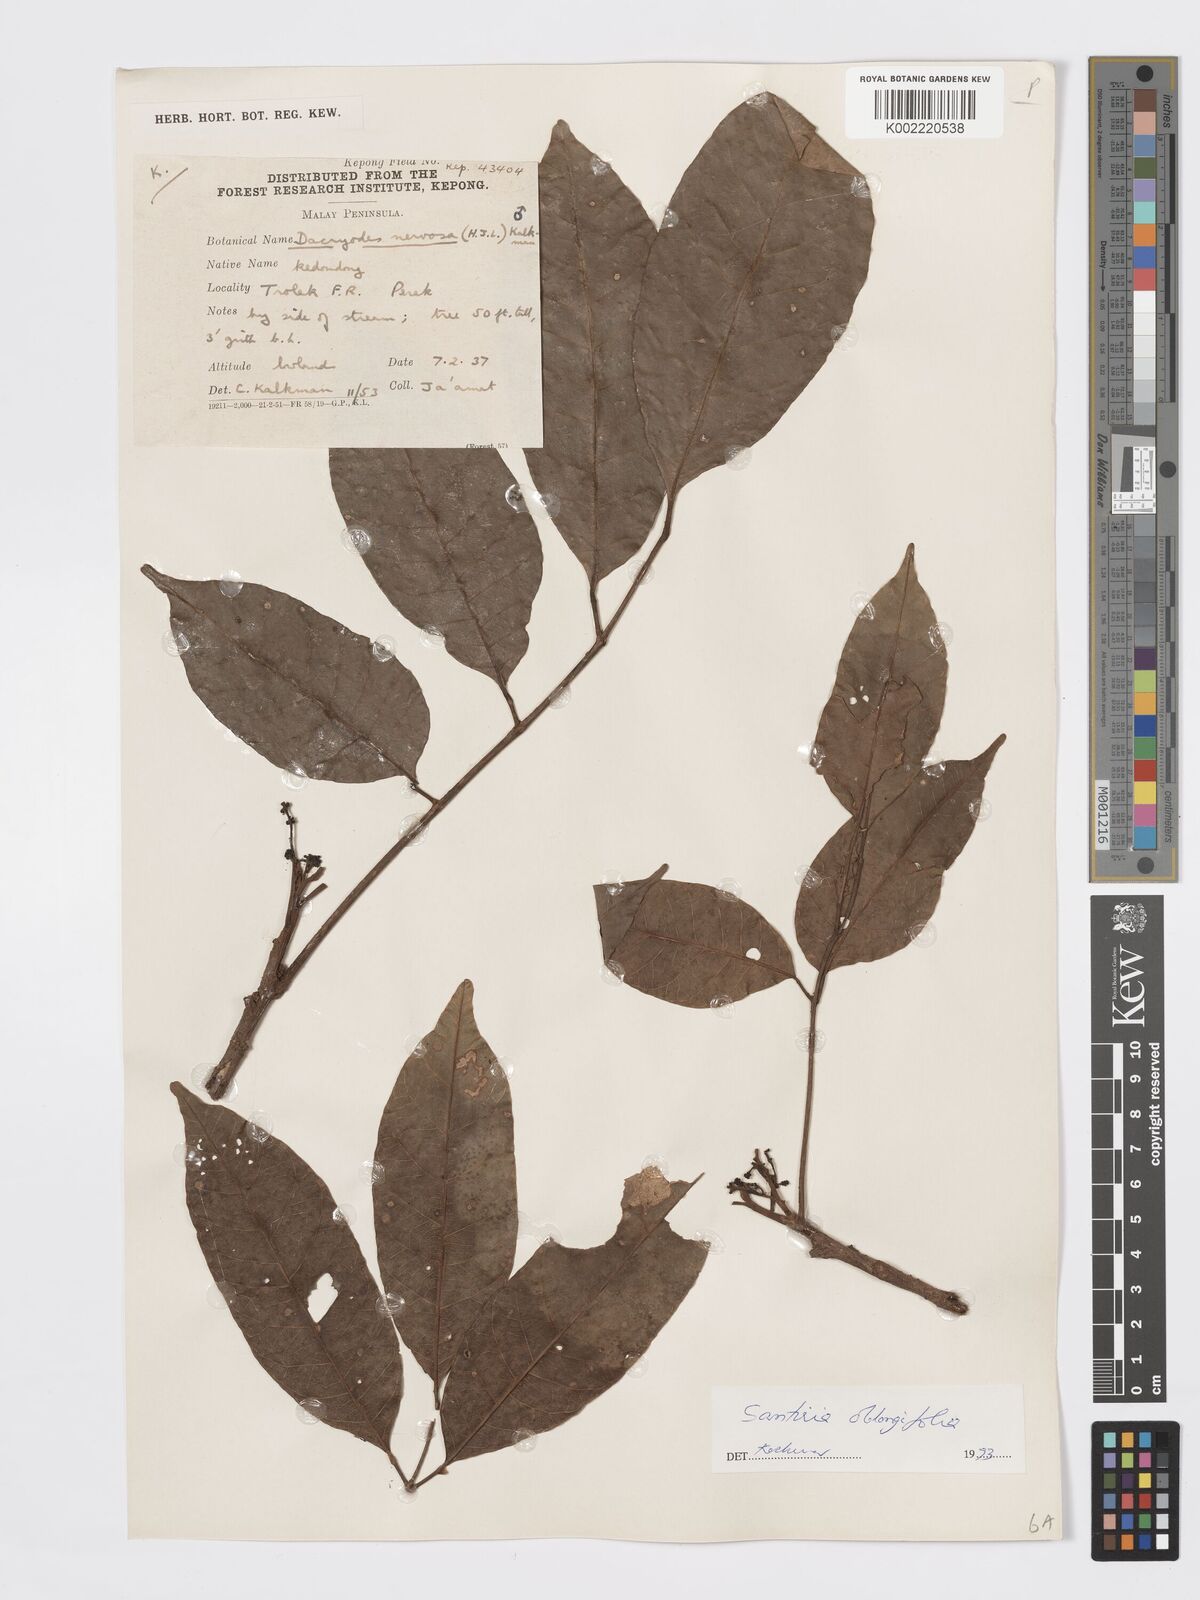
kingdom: Plantae
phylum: Tracheophyta
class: Magnoliopsida
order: Sapindales
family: Burseraceae
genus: Santiria
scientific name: Santiria oblongifolia
